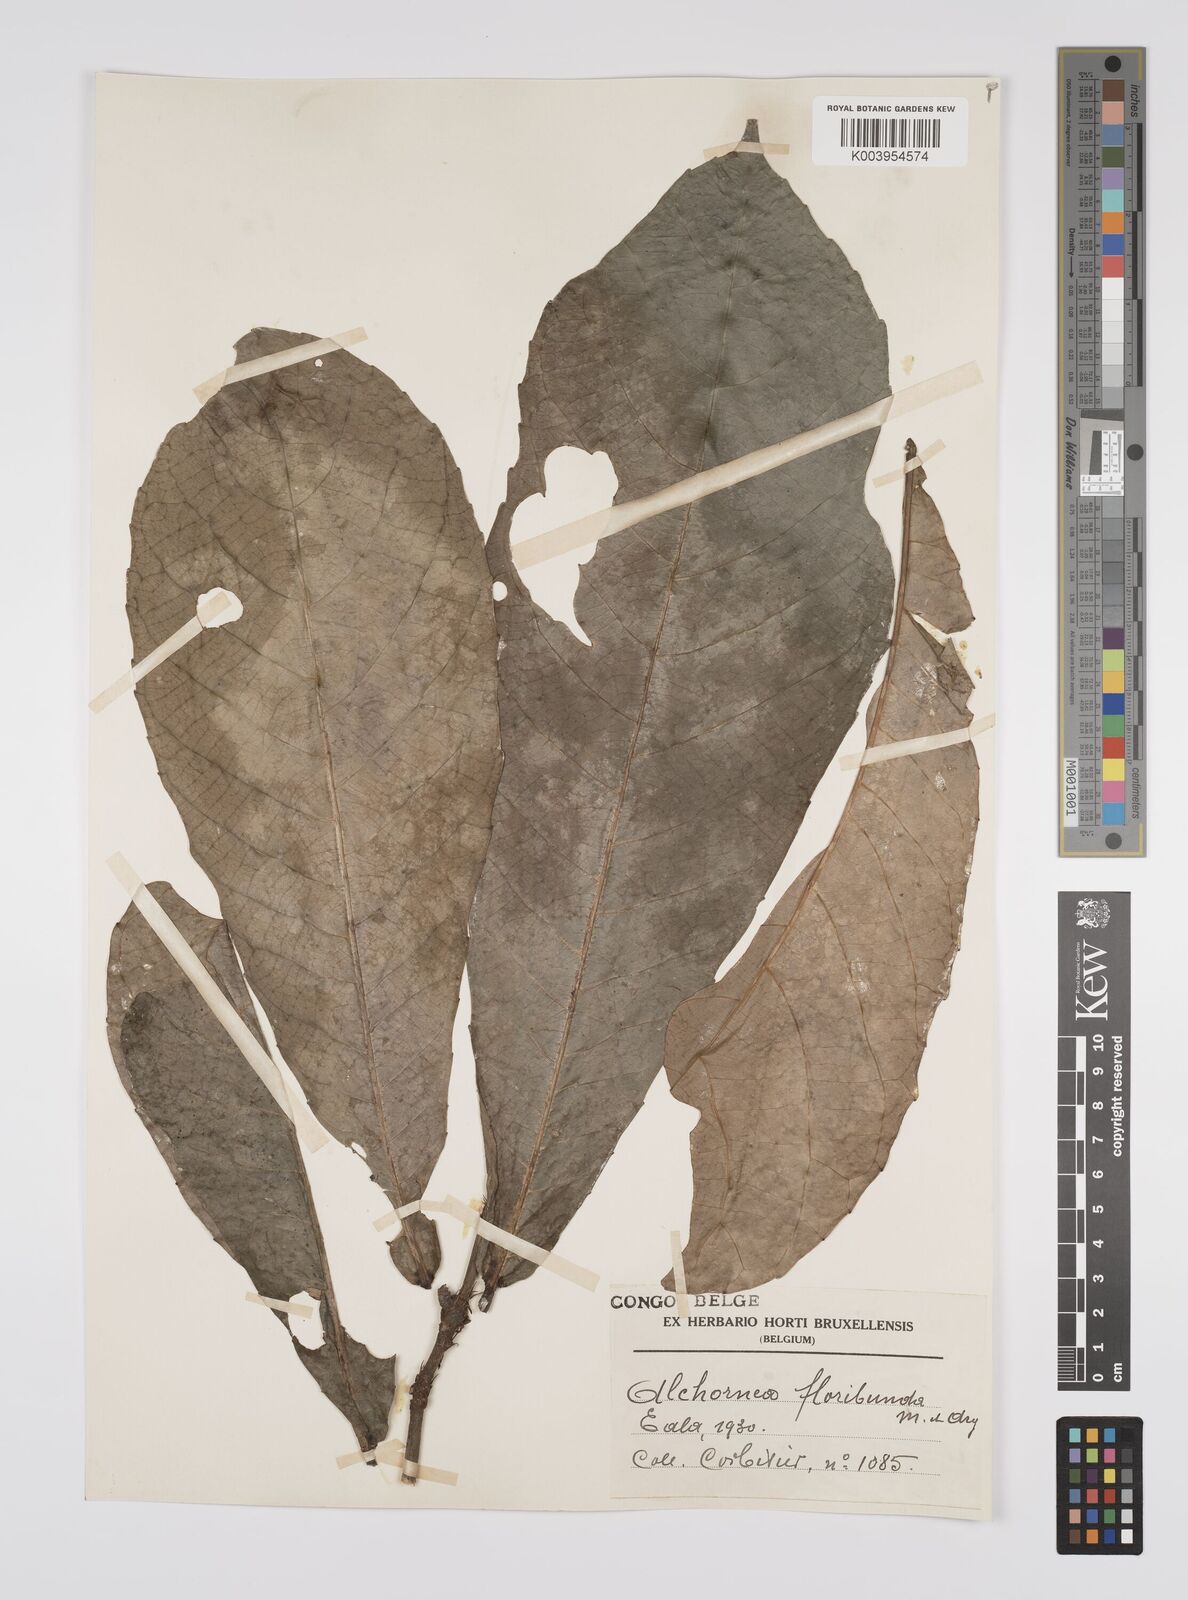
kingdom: Plantae
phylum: Tracheophyta
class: Magnoliopsida
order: Malpighiales
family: Euphorbiaceae
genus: Alchornea
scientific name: Alchornea floribunda
